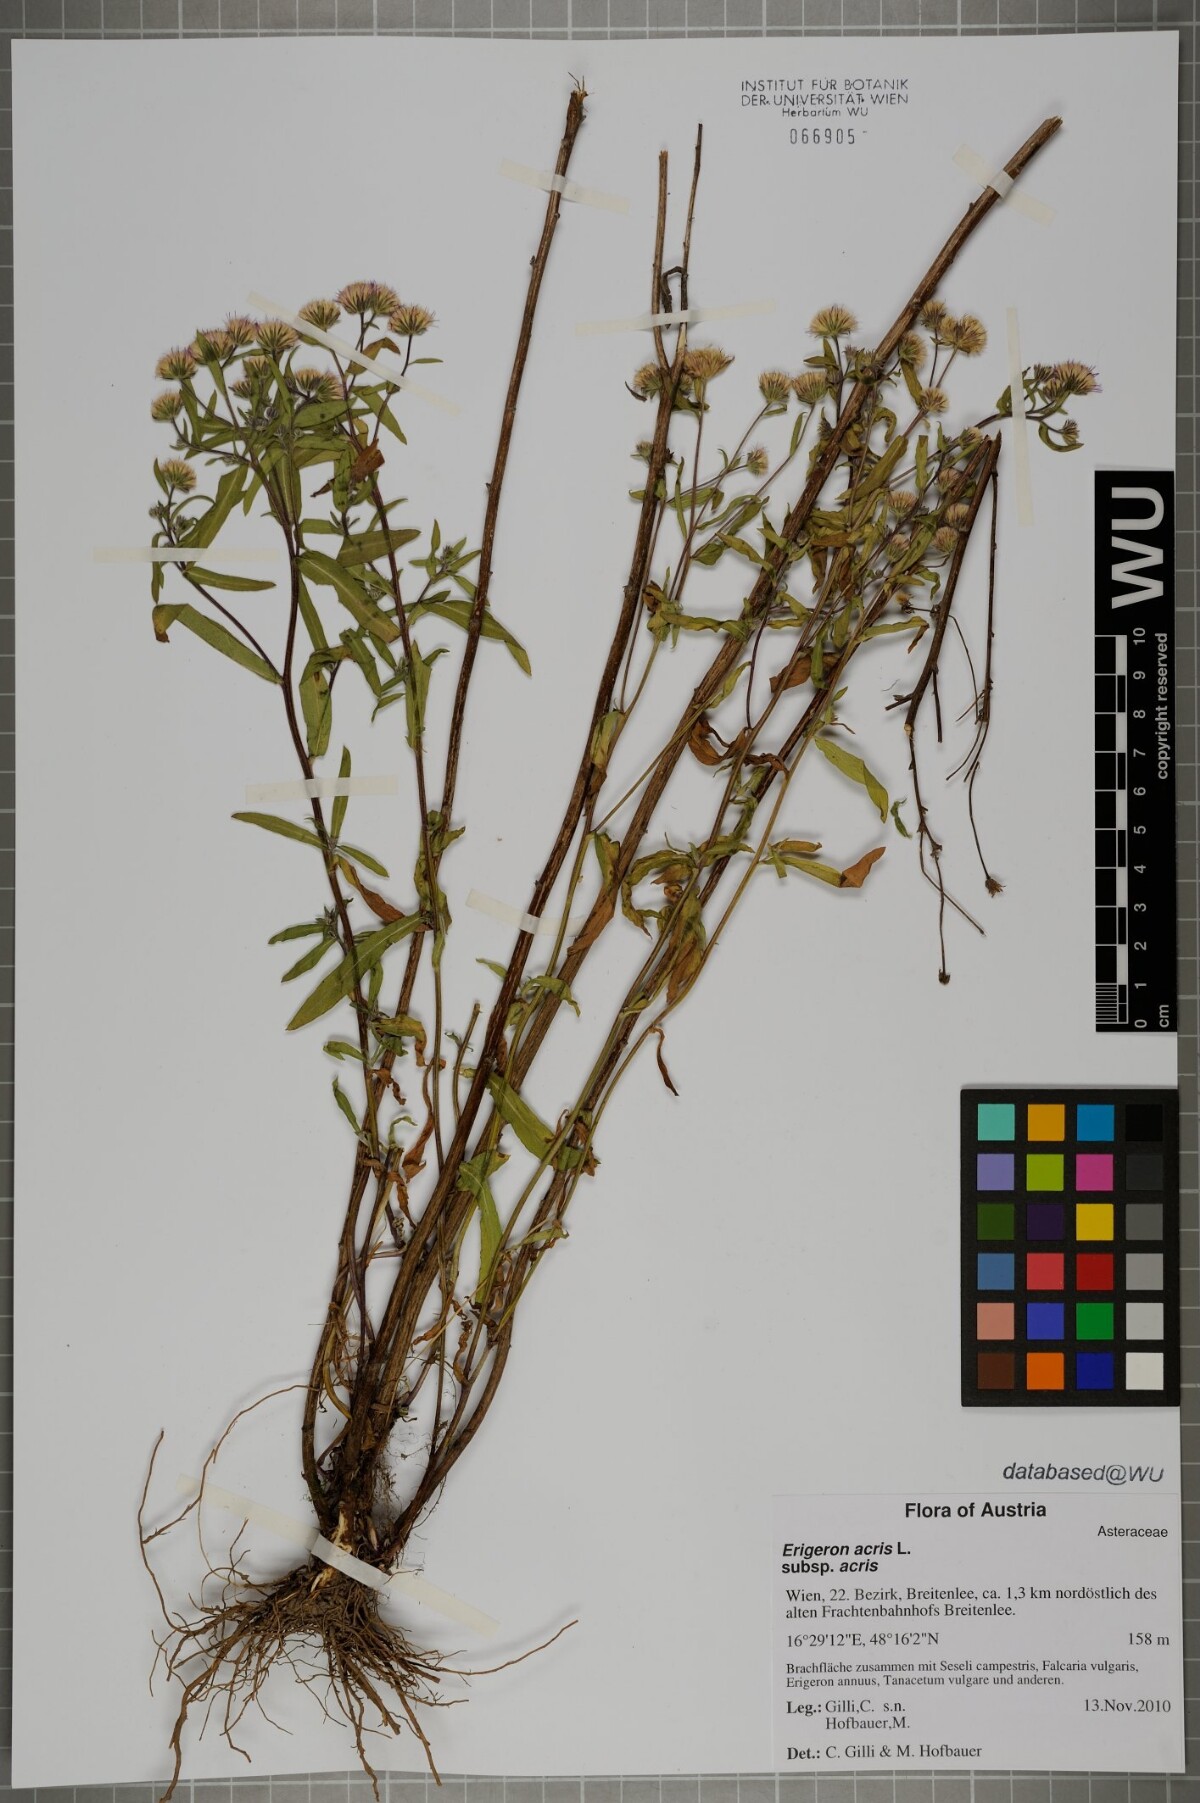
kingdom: Plantae
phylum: Tracheophyta
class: Magnoliopsida
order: Asterales
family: Asteraceae
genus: Erigeron
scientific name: Erigeron acris
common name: Blue fleabane
